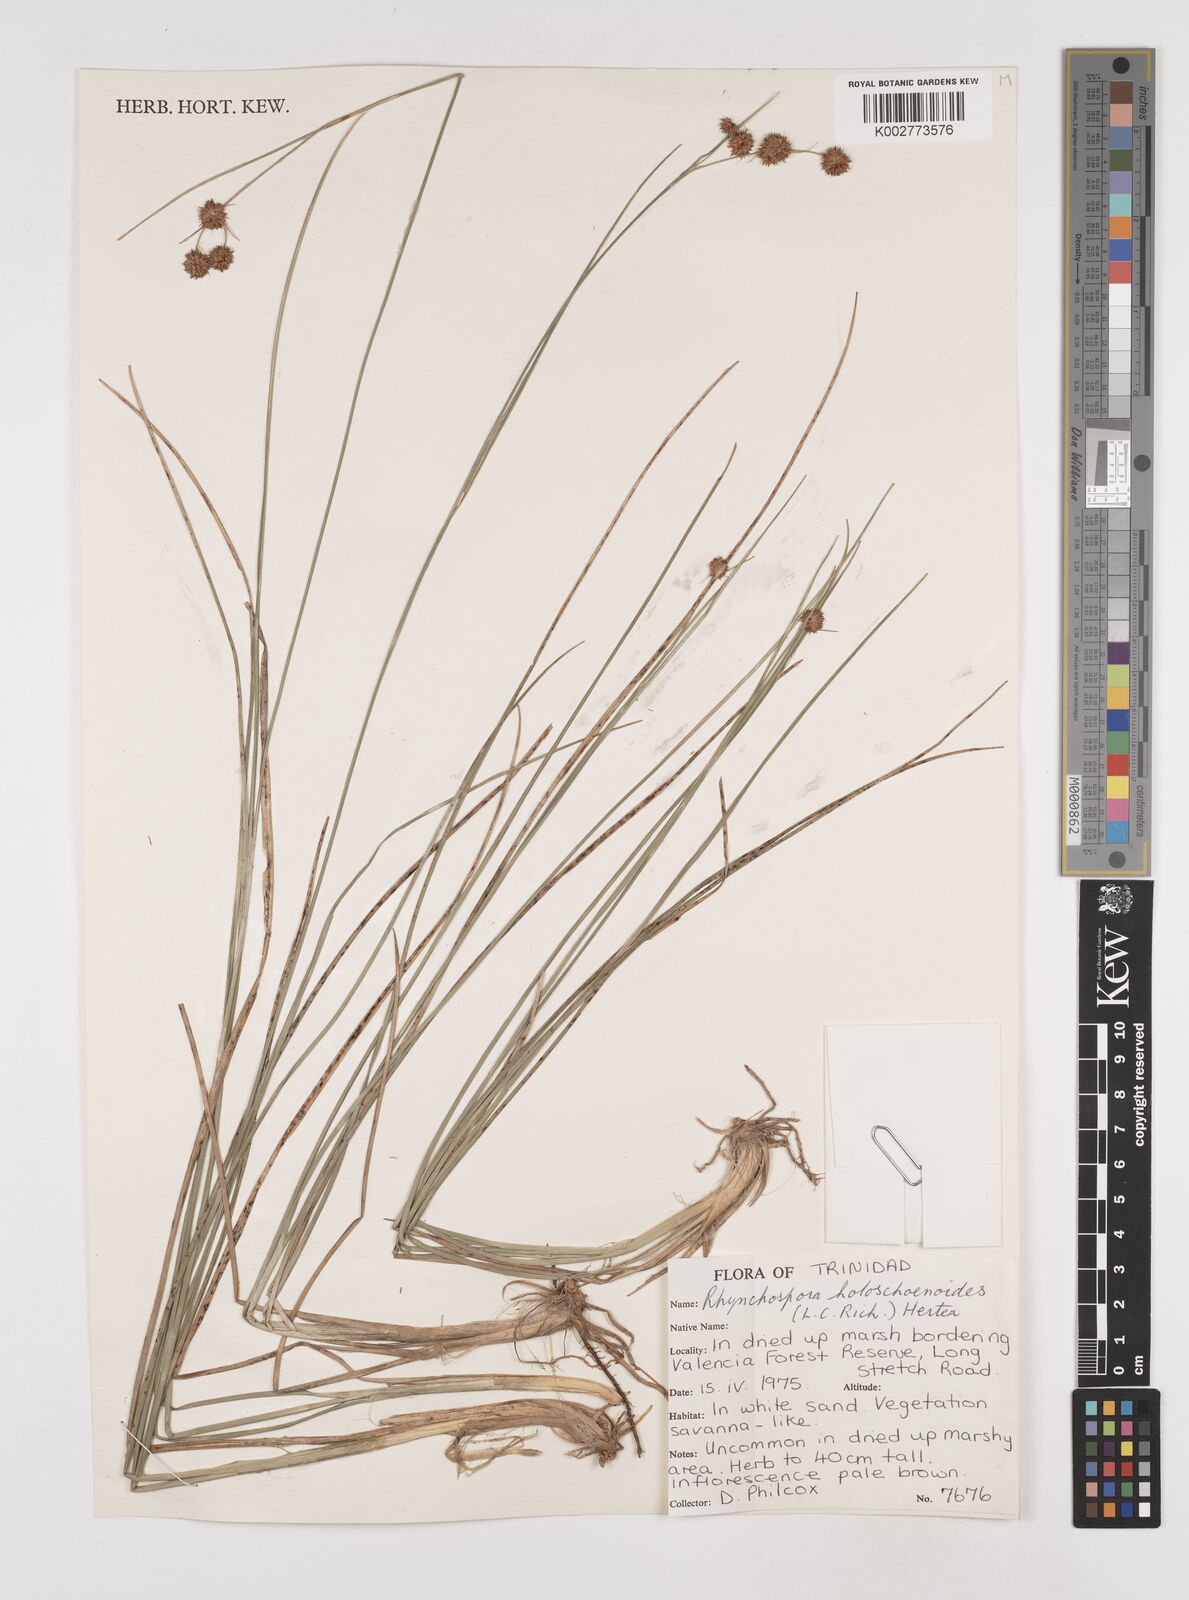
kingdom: Plantae
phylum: Tracheophyta
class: Liliopsida
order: Poales
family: Cyperaceae
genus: Rhynchospora
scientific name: Rhynchospora holoschoenoides
